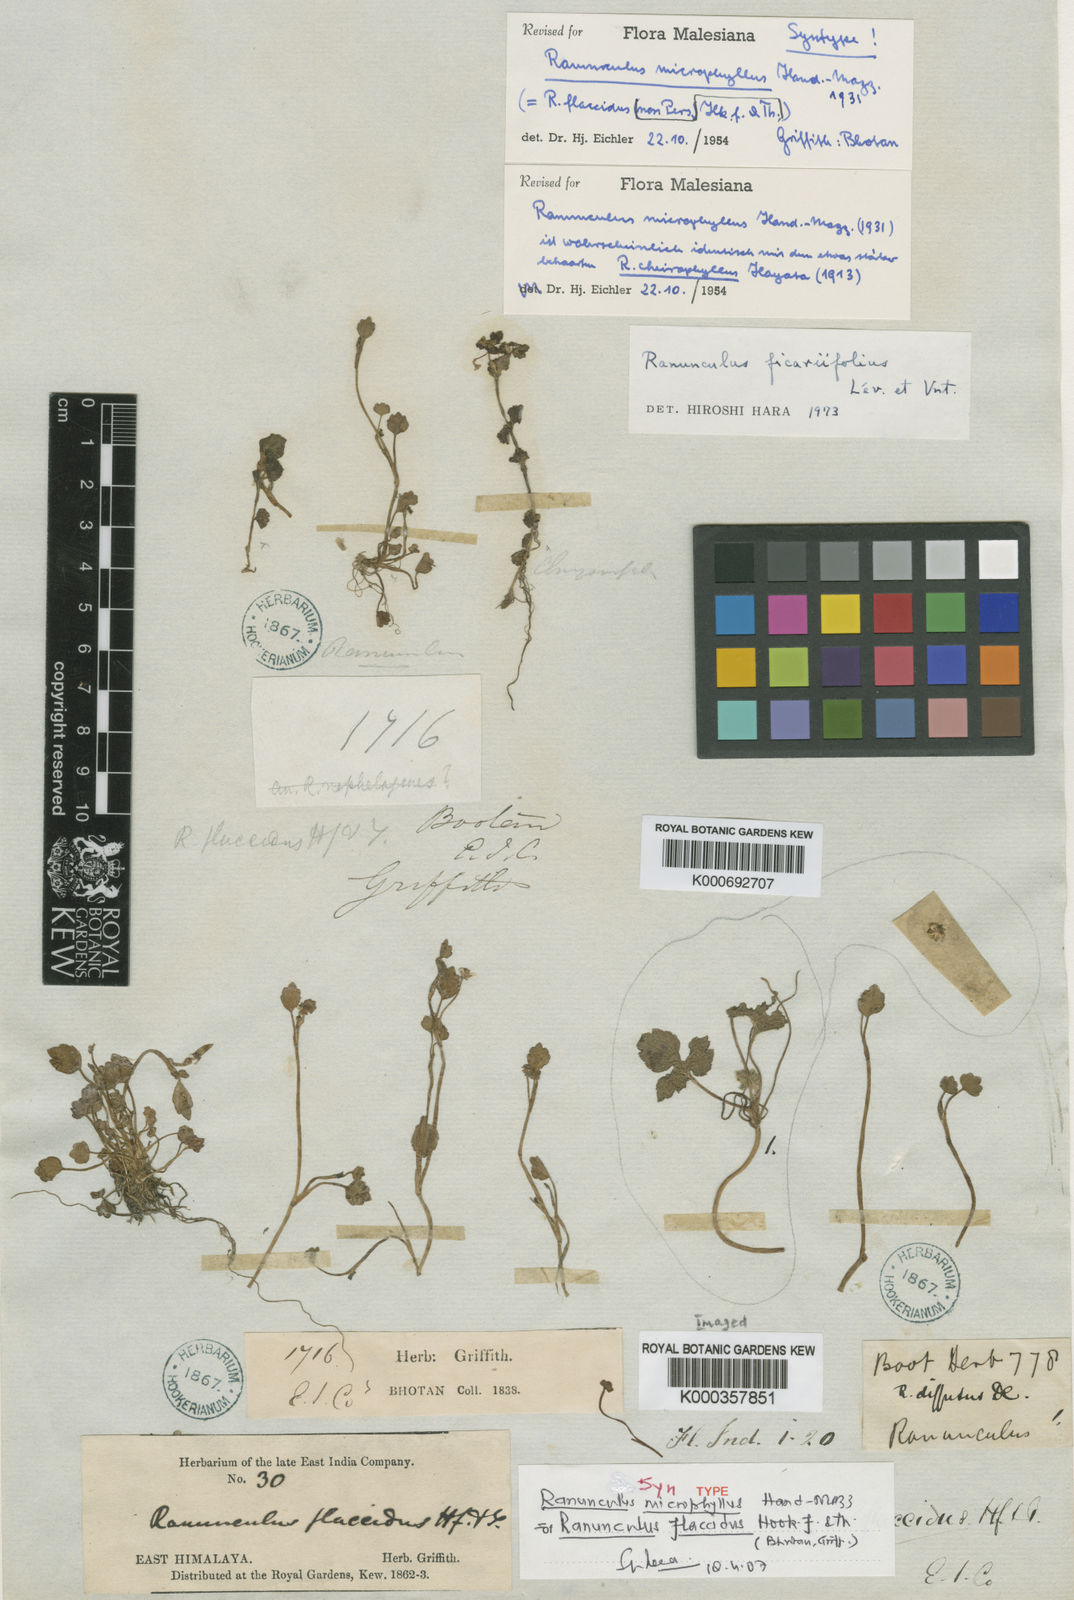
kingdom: Plantae
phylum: Tracheophyta
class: Magnoliopsida
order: Ranunculales
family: Ranunculaceae
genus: Ranunculus
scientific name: Ranunculus
